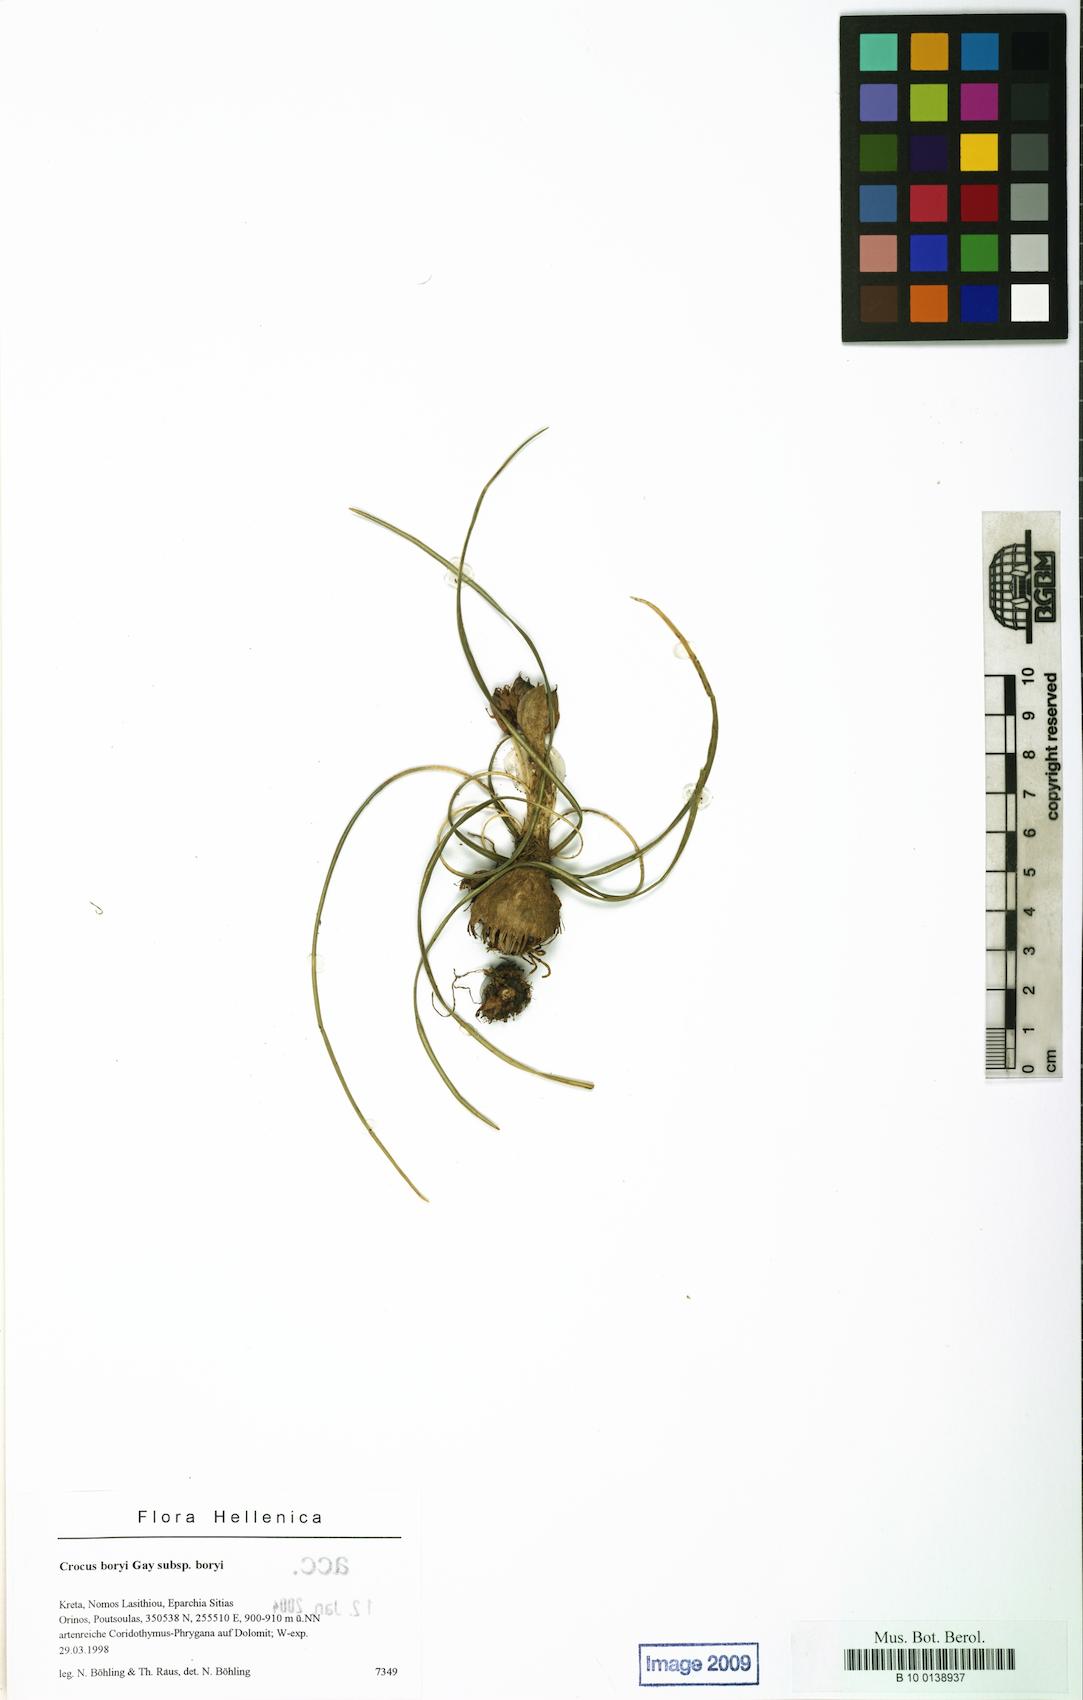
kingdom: Plantae
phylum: Tracheophyta
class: Liliopsida
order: Asparagales
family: Iridaceae
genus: Crocus
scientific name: Crocus boryi
